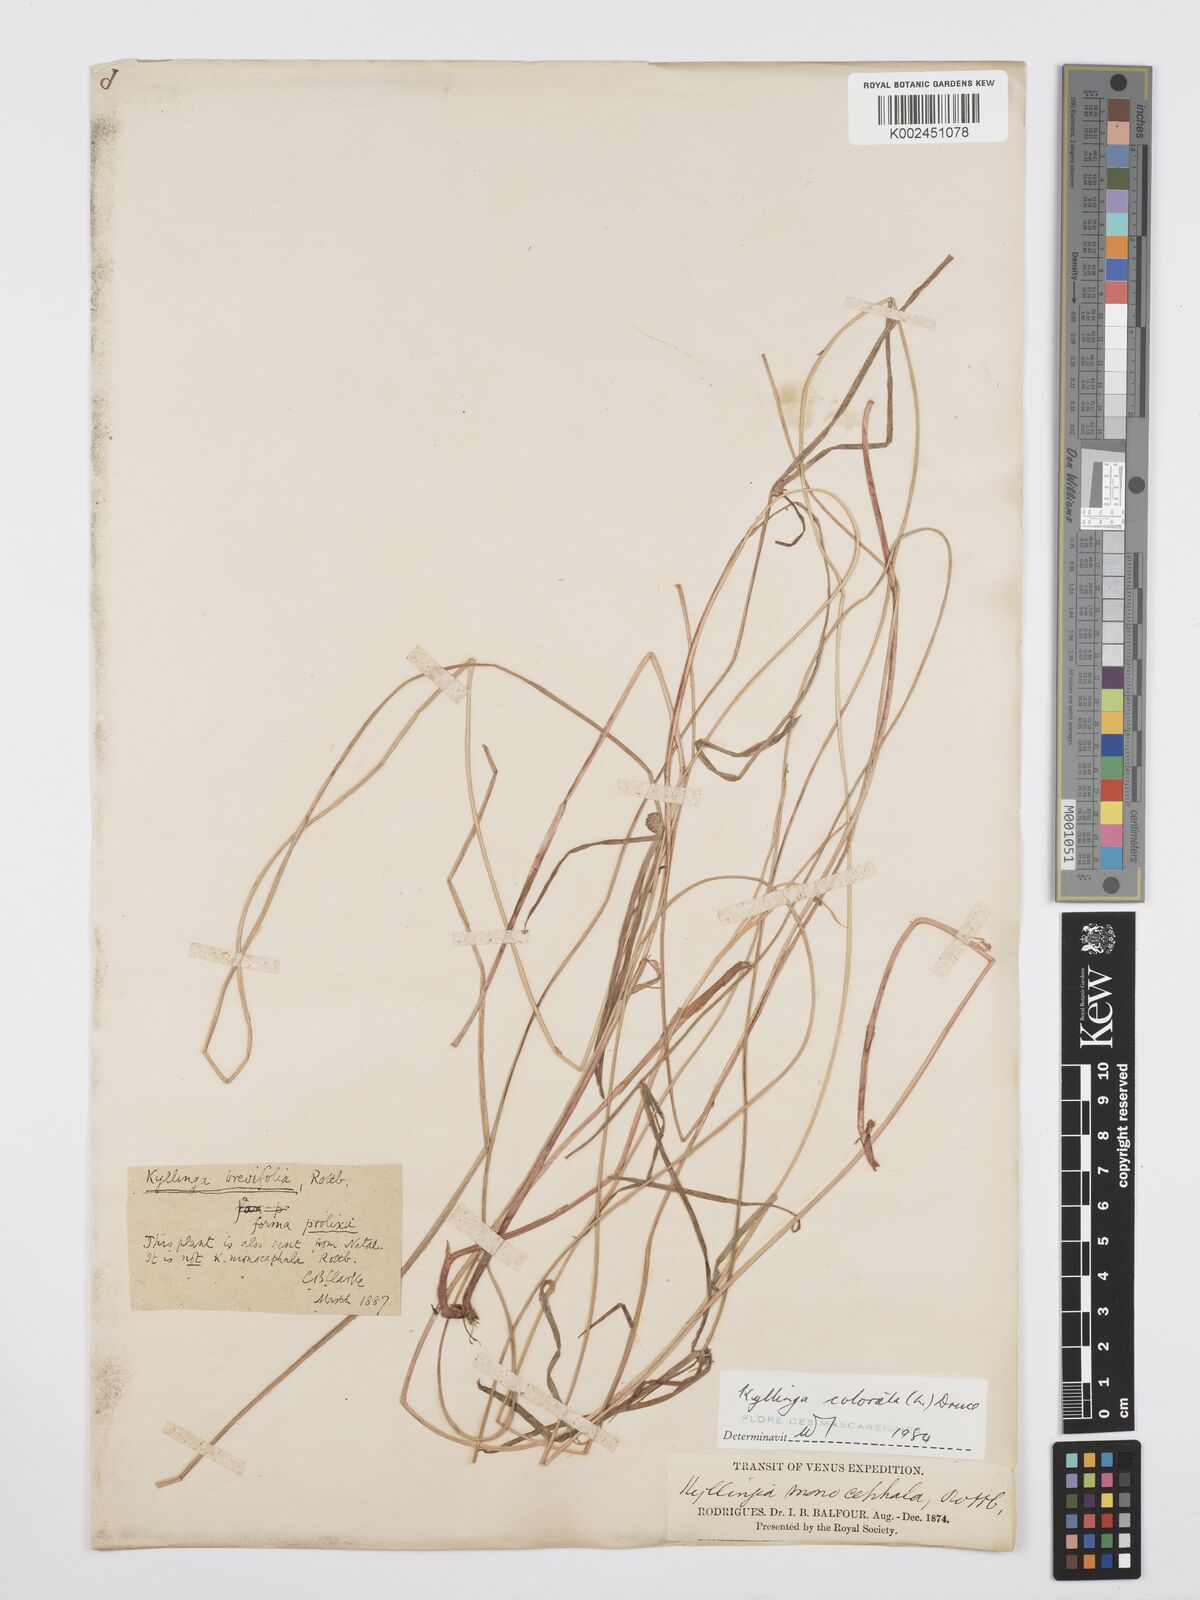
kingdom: Plantae
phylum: Tracheophyta
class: Liliopsida
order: Poales
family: Cyperaceae
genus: Cyperus
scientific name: Cyperus brevifolius
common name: Globe kyllinga
